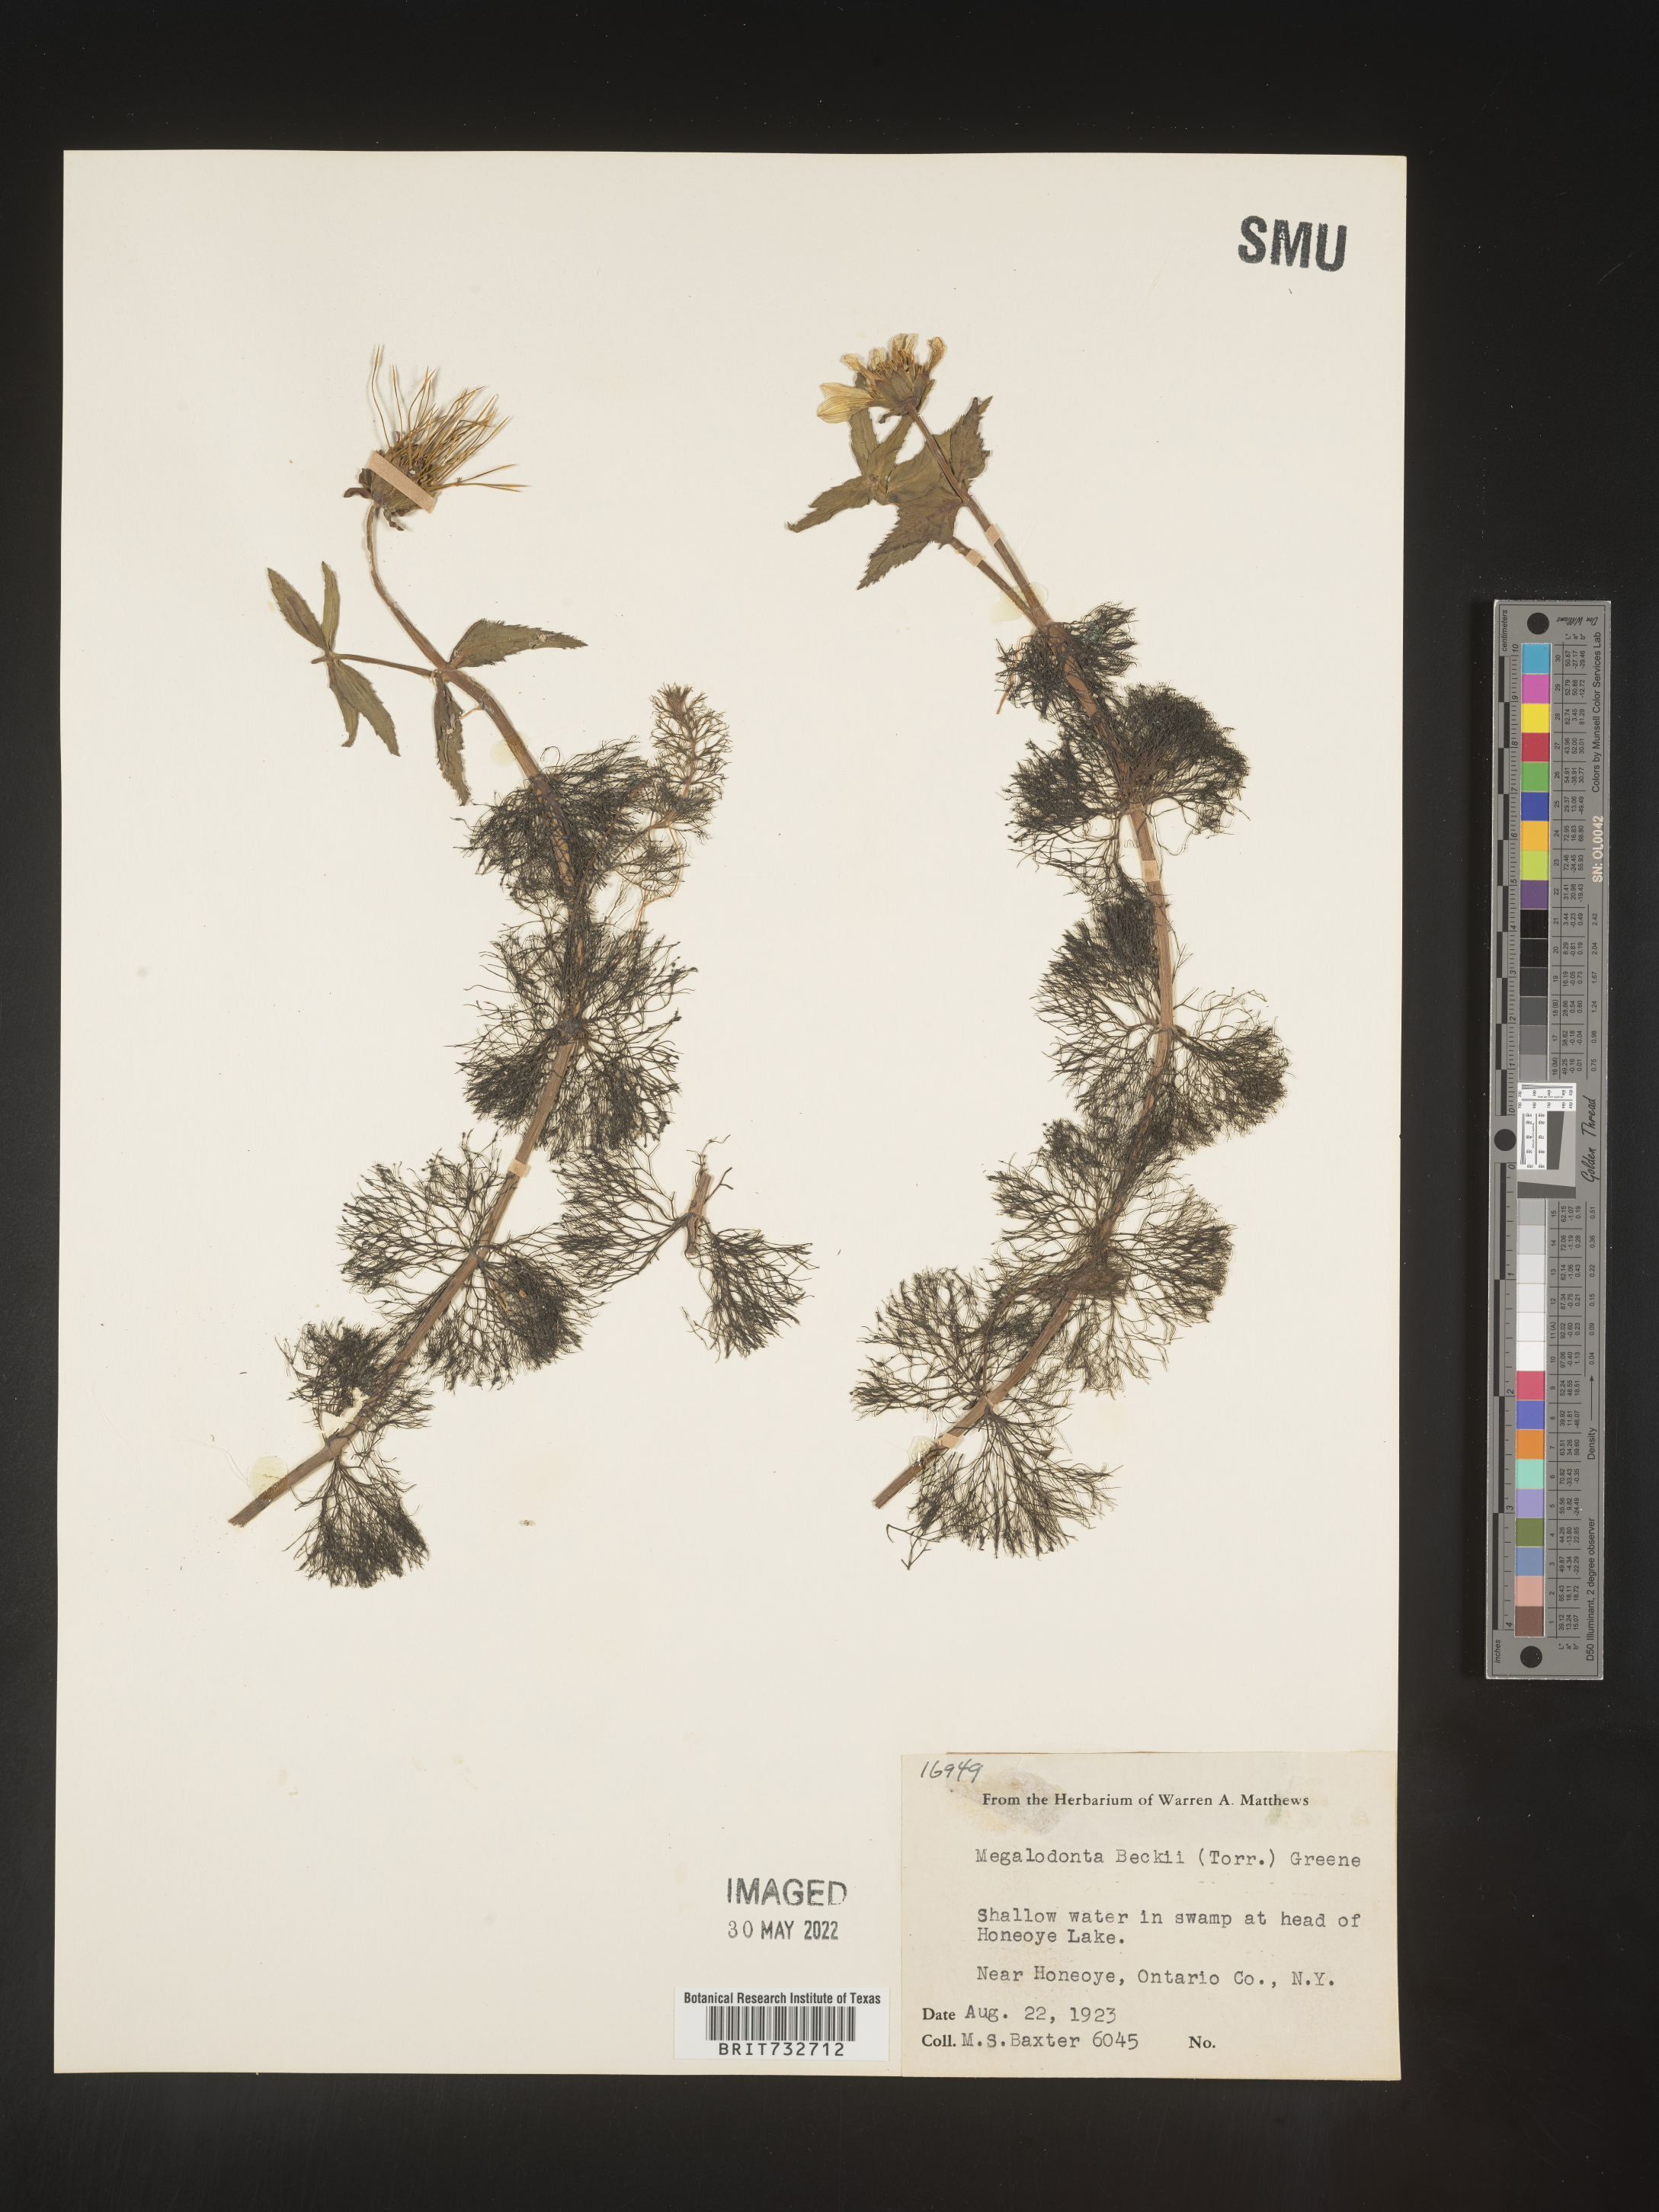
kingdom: Plantae
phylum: Tracheophyta
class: Magnoliopsida
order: Asterales
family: Asteraceae
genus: Bidens
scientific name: Bidens beckii
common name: Beck's beggarticks
